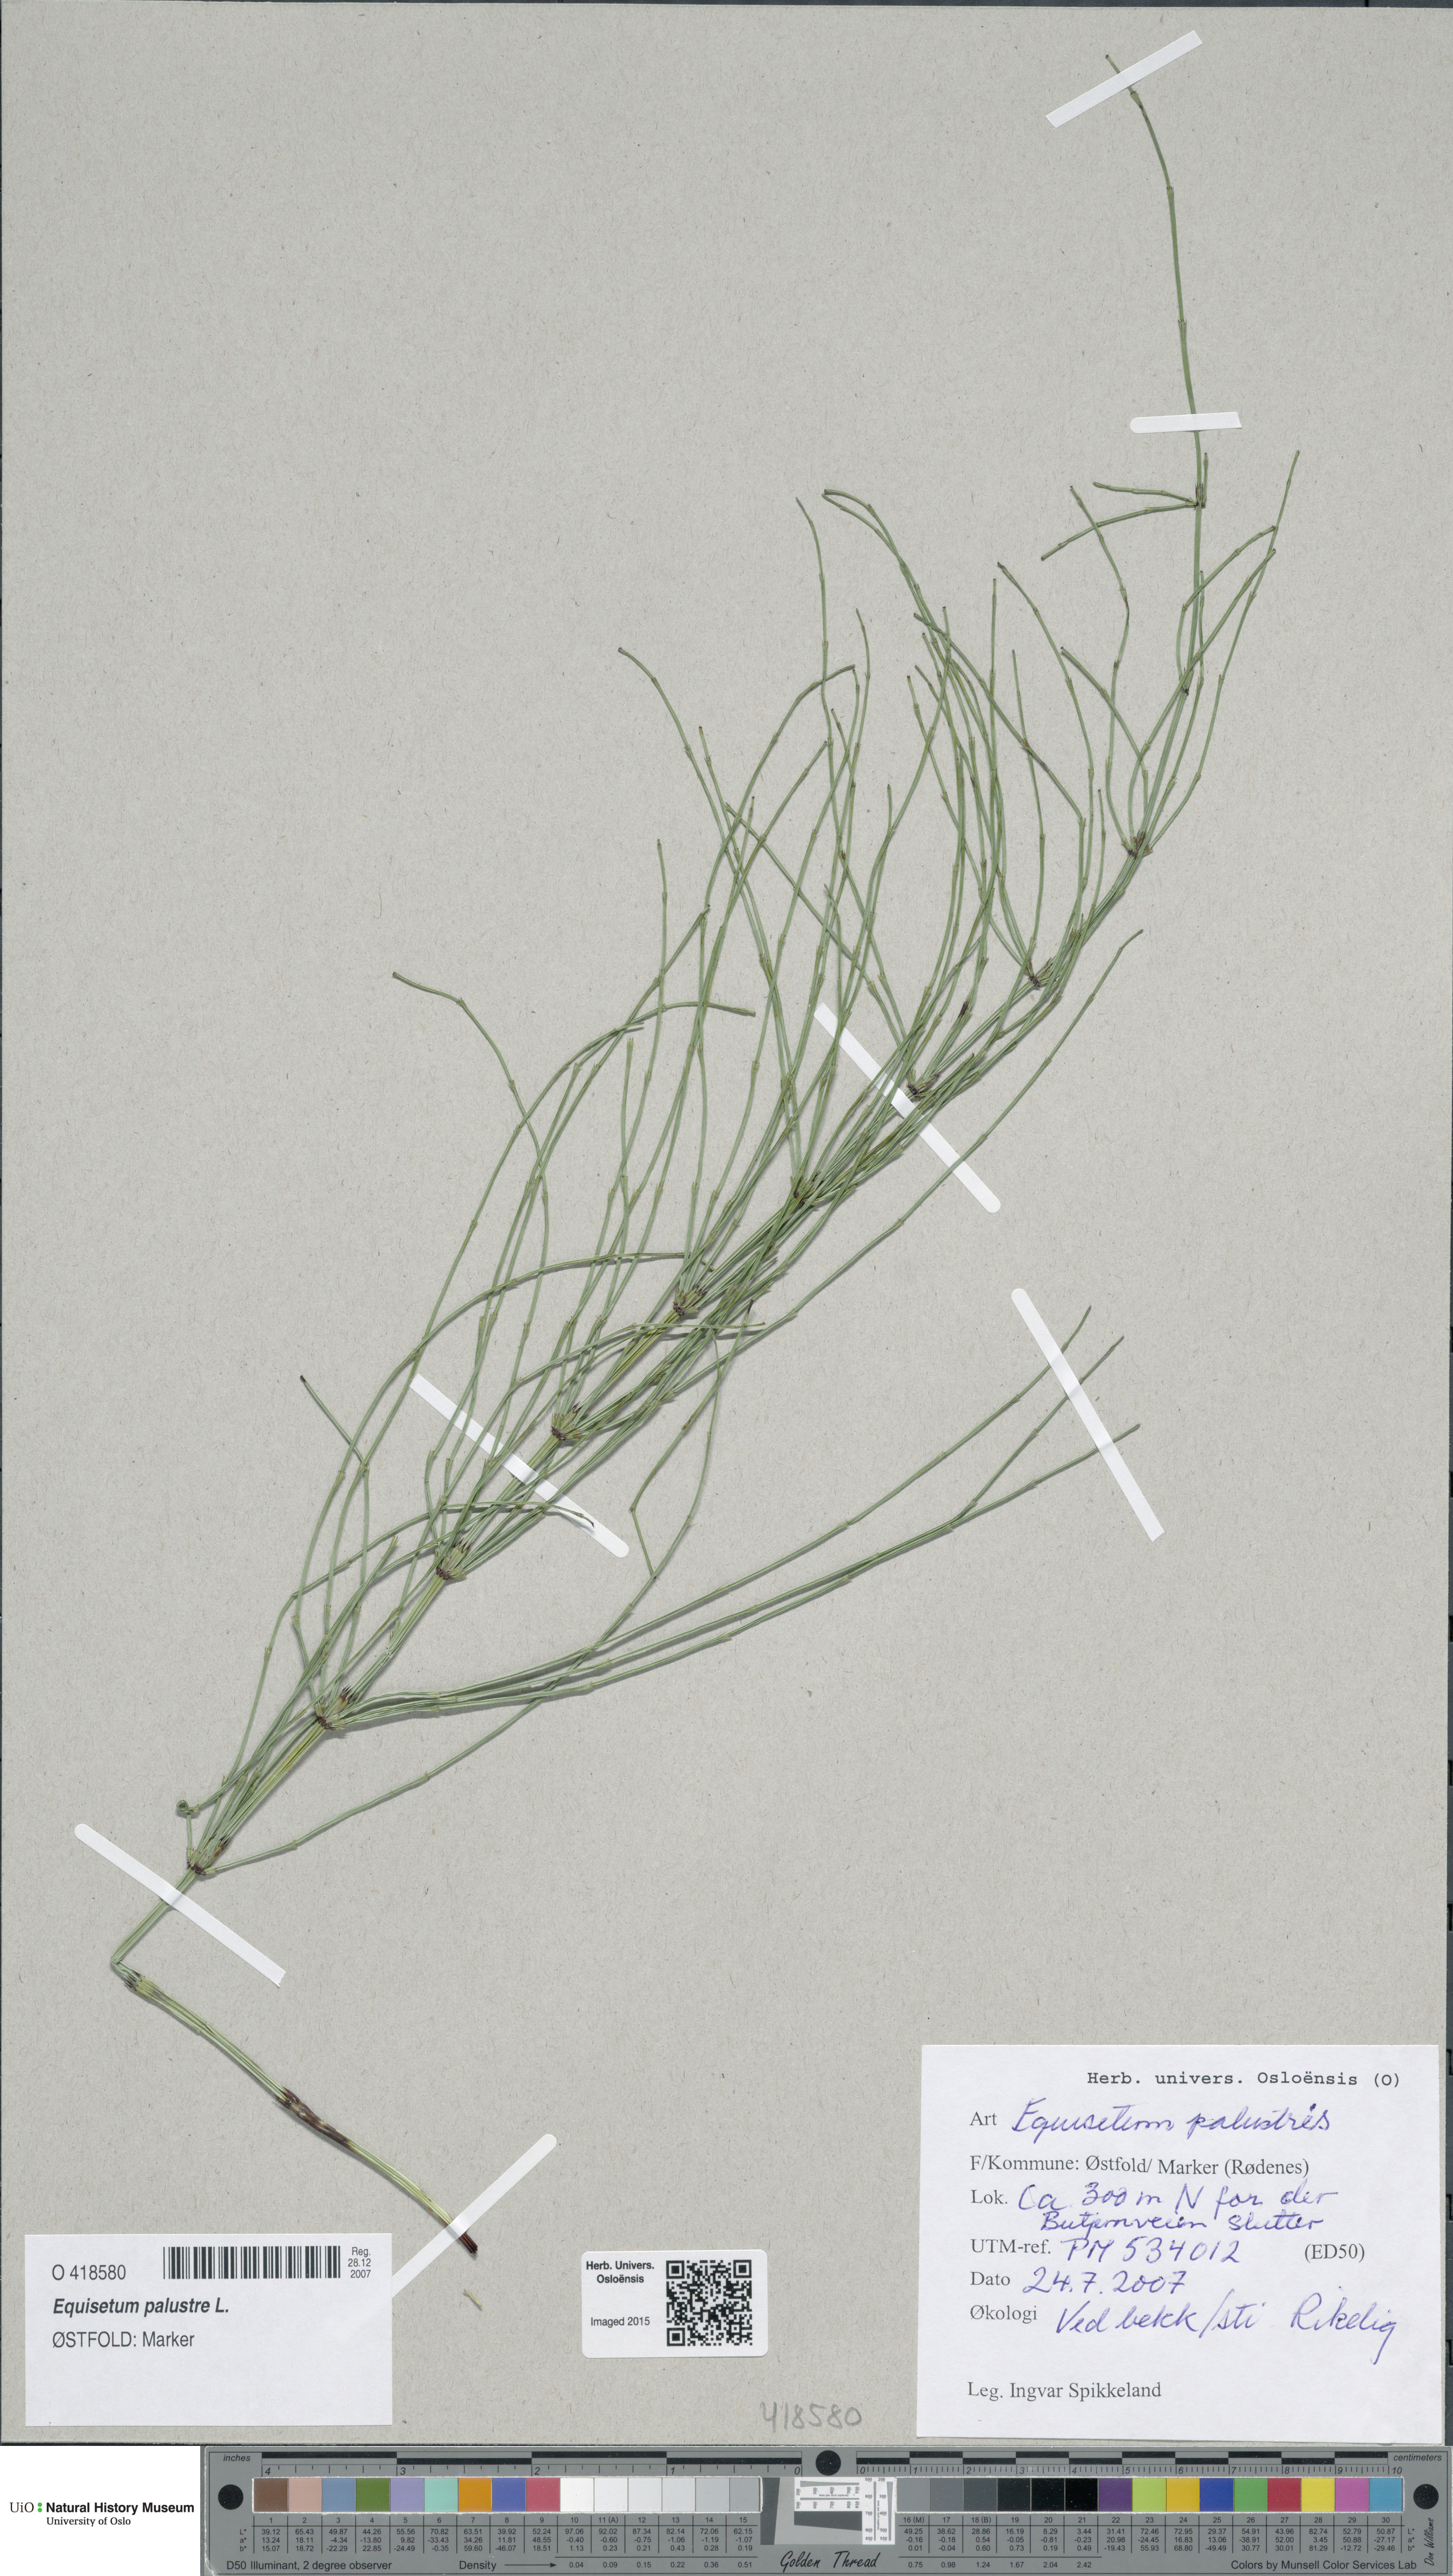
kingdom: Plantae
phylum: Tracheophyta
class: Polypodiopsida
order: Equisetales
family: Equisetaceae
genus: Equisetum
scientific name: Equisetum palustre
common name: Marsh horsetail
